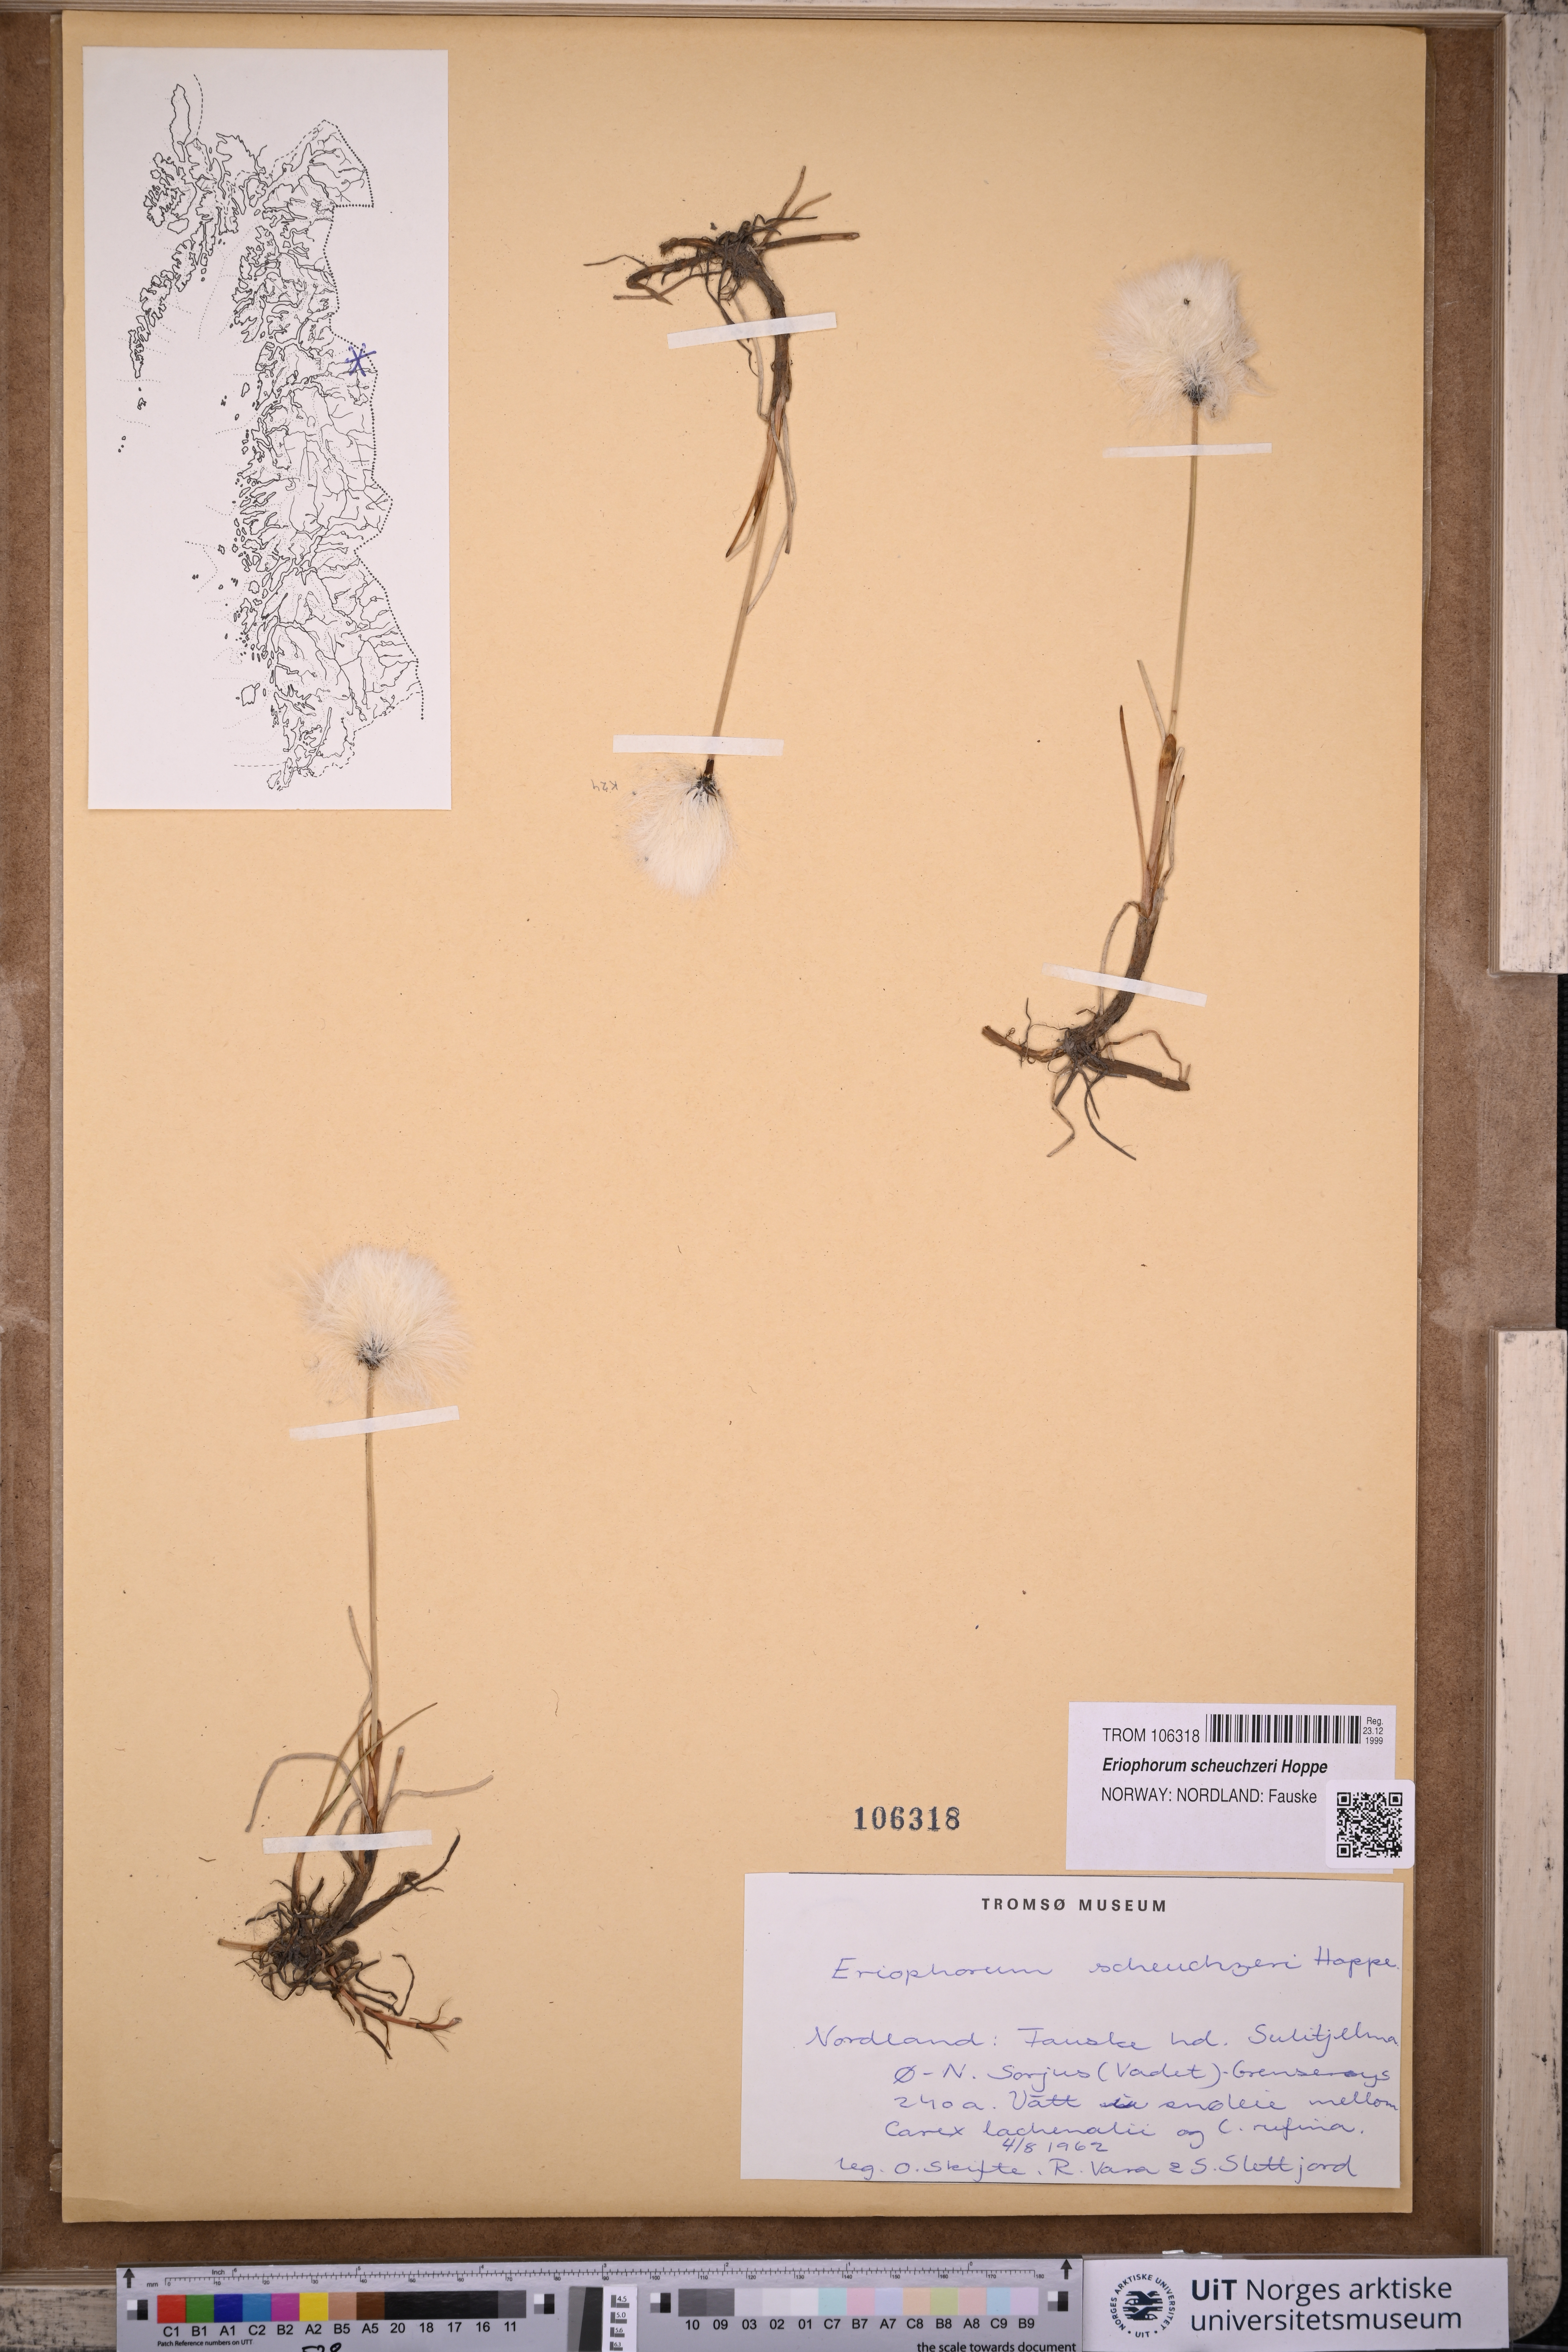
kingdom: Plantae
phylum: Tracheophyta
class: Liliopsida
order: Poales
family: Cyperaceae
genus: Eriophorum
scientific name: Eriophorum scheuchzeri
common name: Scheuchzer's cottongrass
